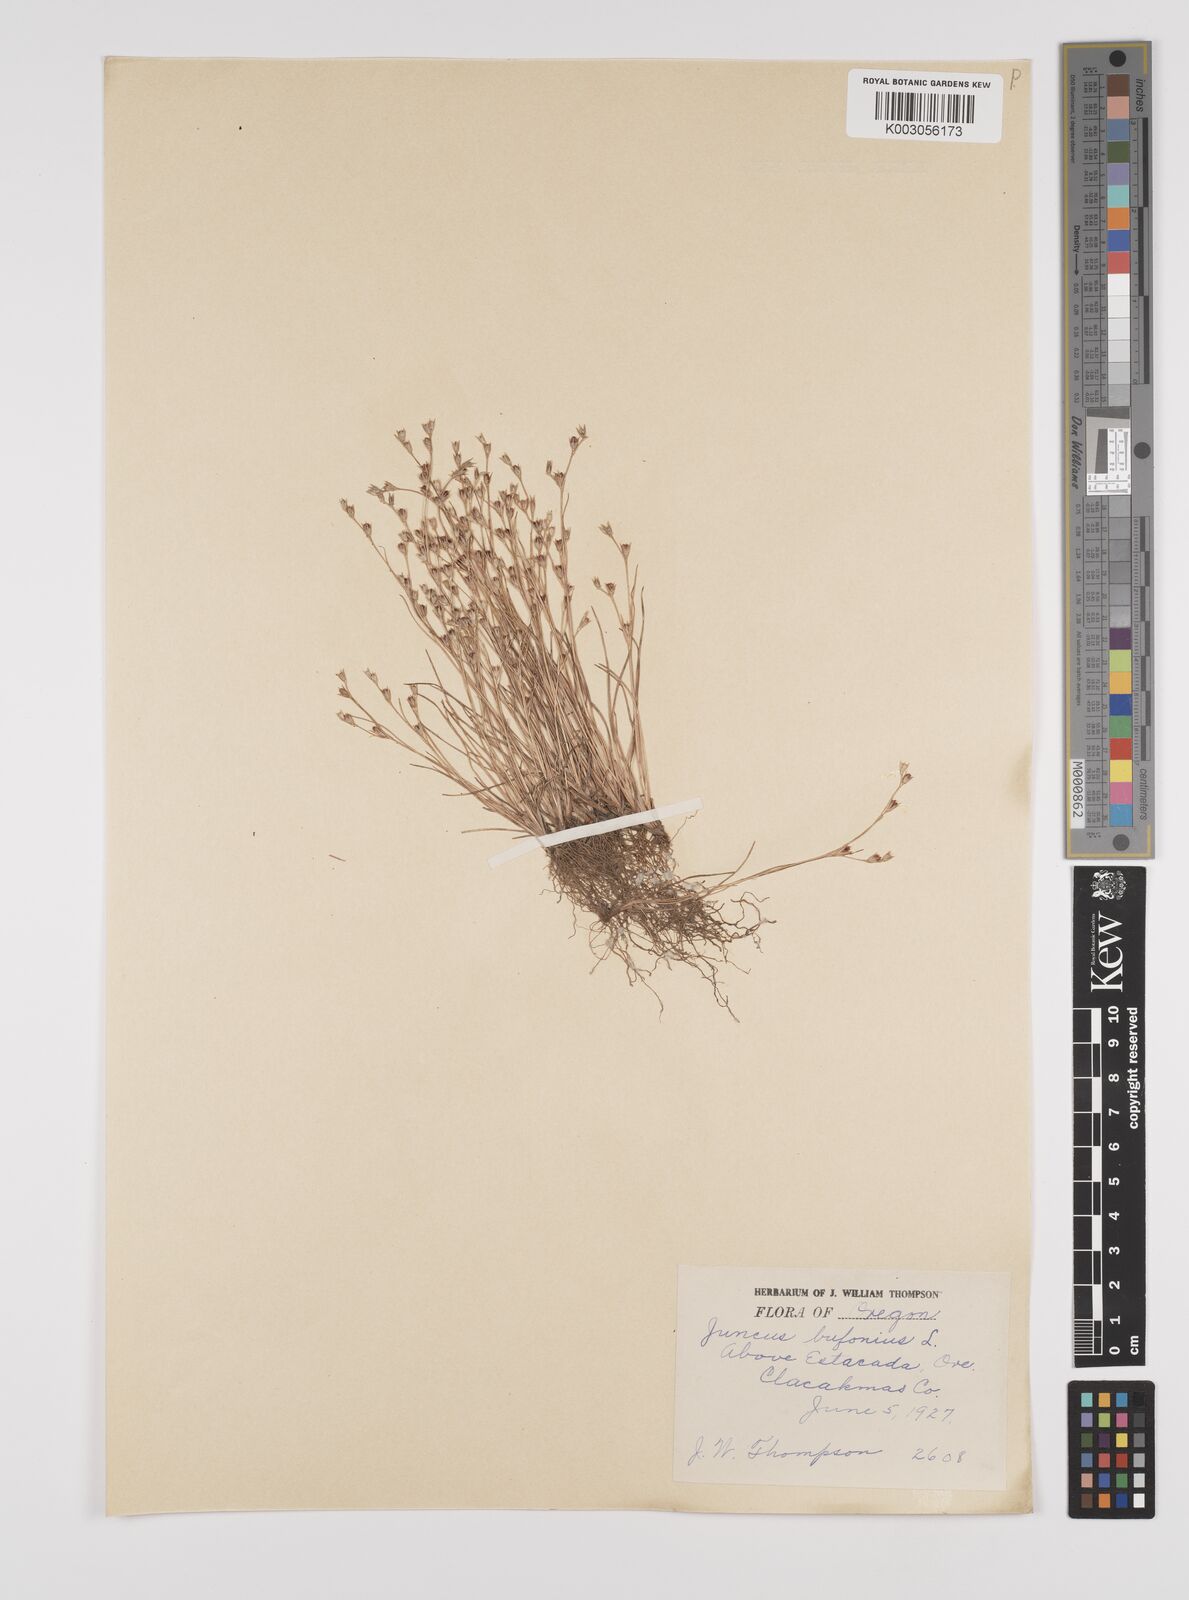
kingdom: Plantae
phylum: Tracheophyta
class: Liliopsida
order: Poales
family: Juncaceae
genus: Juncus
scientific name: Juncus bufonius
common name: Toad rush
